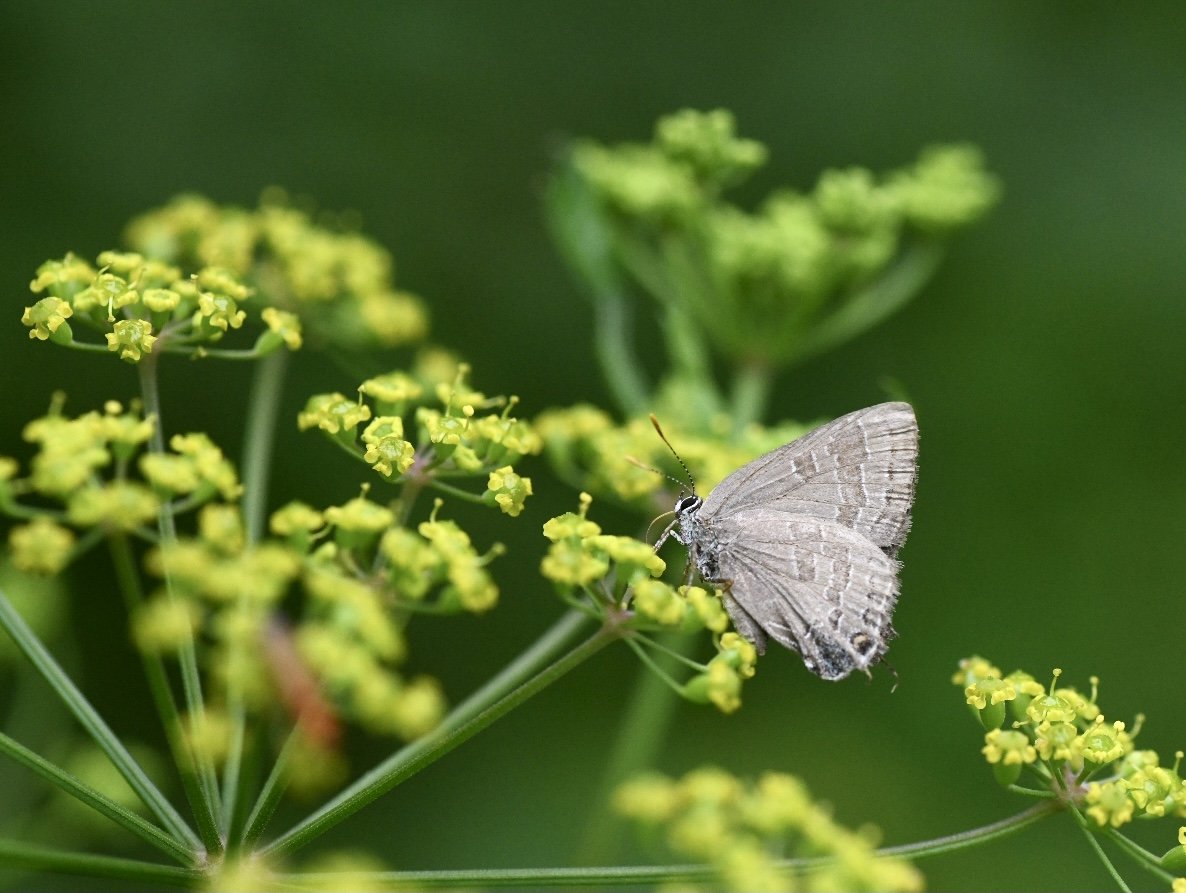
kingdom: Animalia
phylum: Arthropoda
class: Insecta
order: Lepidoptera
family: Lycaenidae
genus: Strymon
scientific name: Strymon caryaevorus
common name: Hickory Hairstreak
